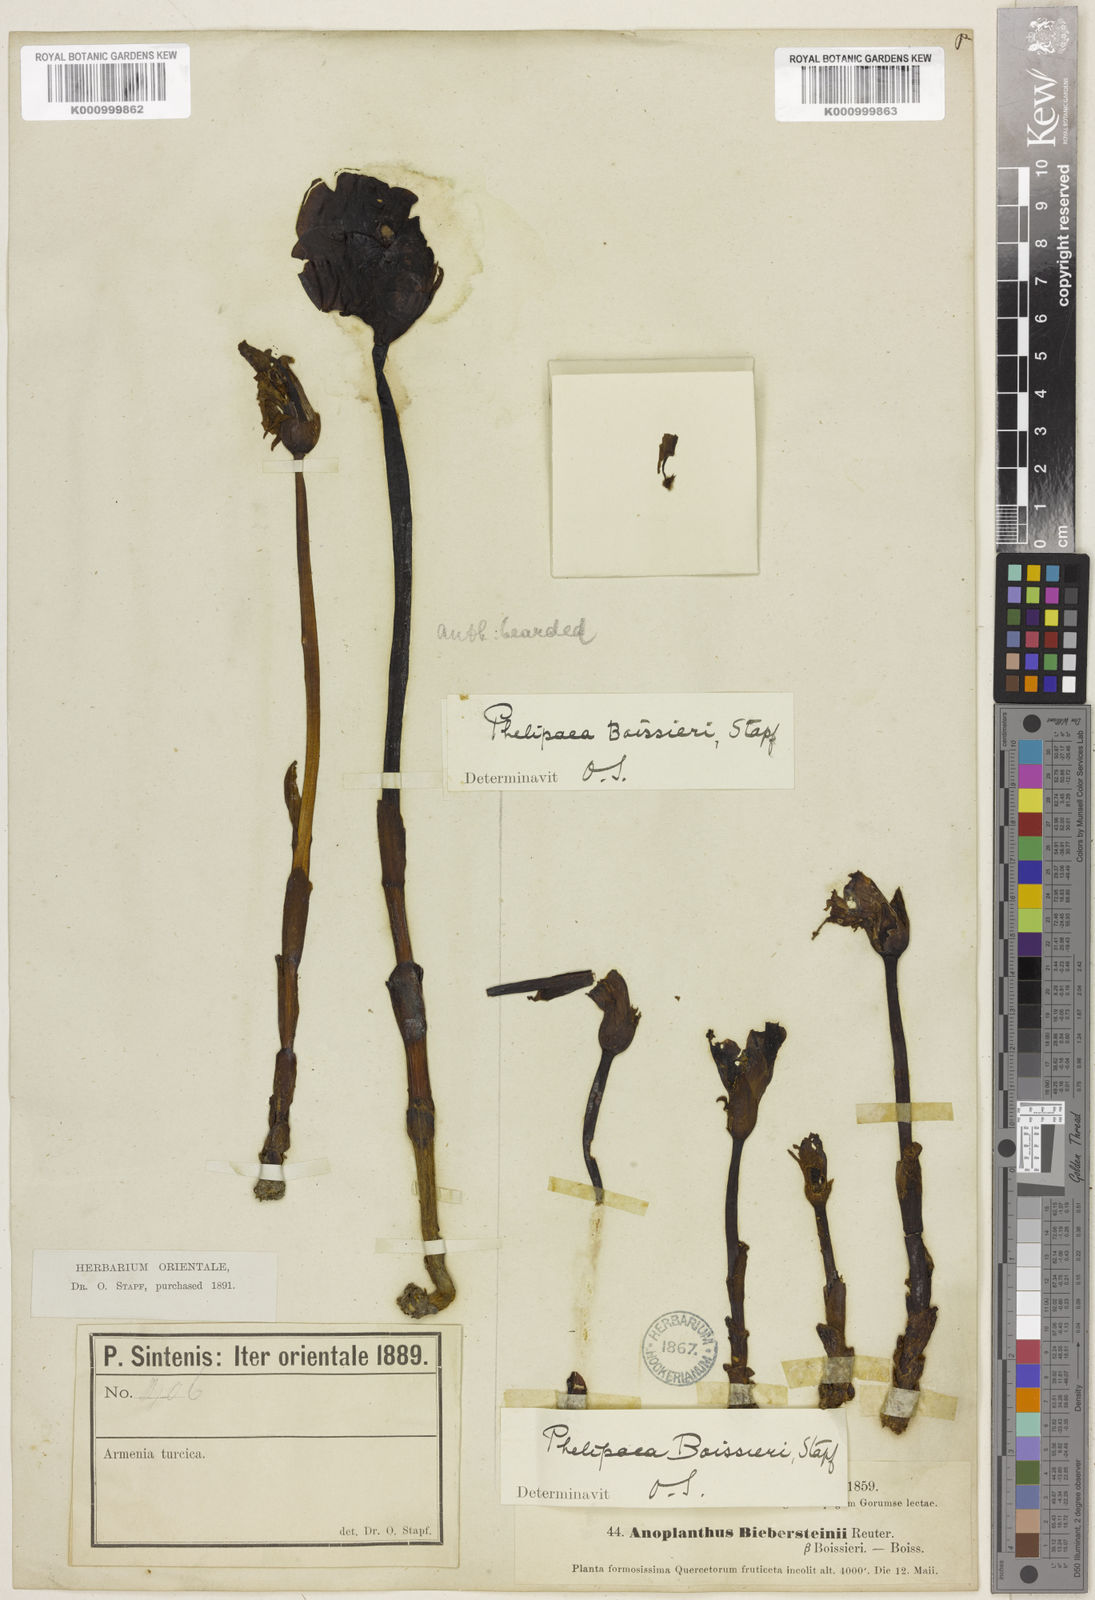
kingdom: Plantae
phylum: Tracheophyta
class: Magnoliopsida
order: Lamiales
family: Orobanchaceae
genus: Phelypaea
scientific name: Phelypaea
